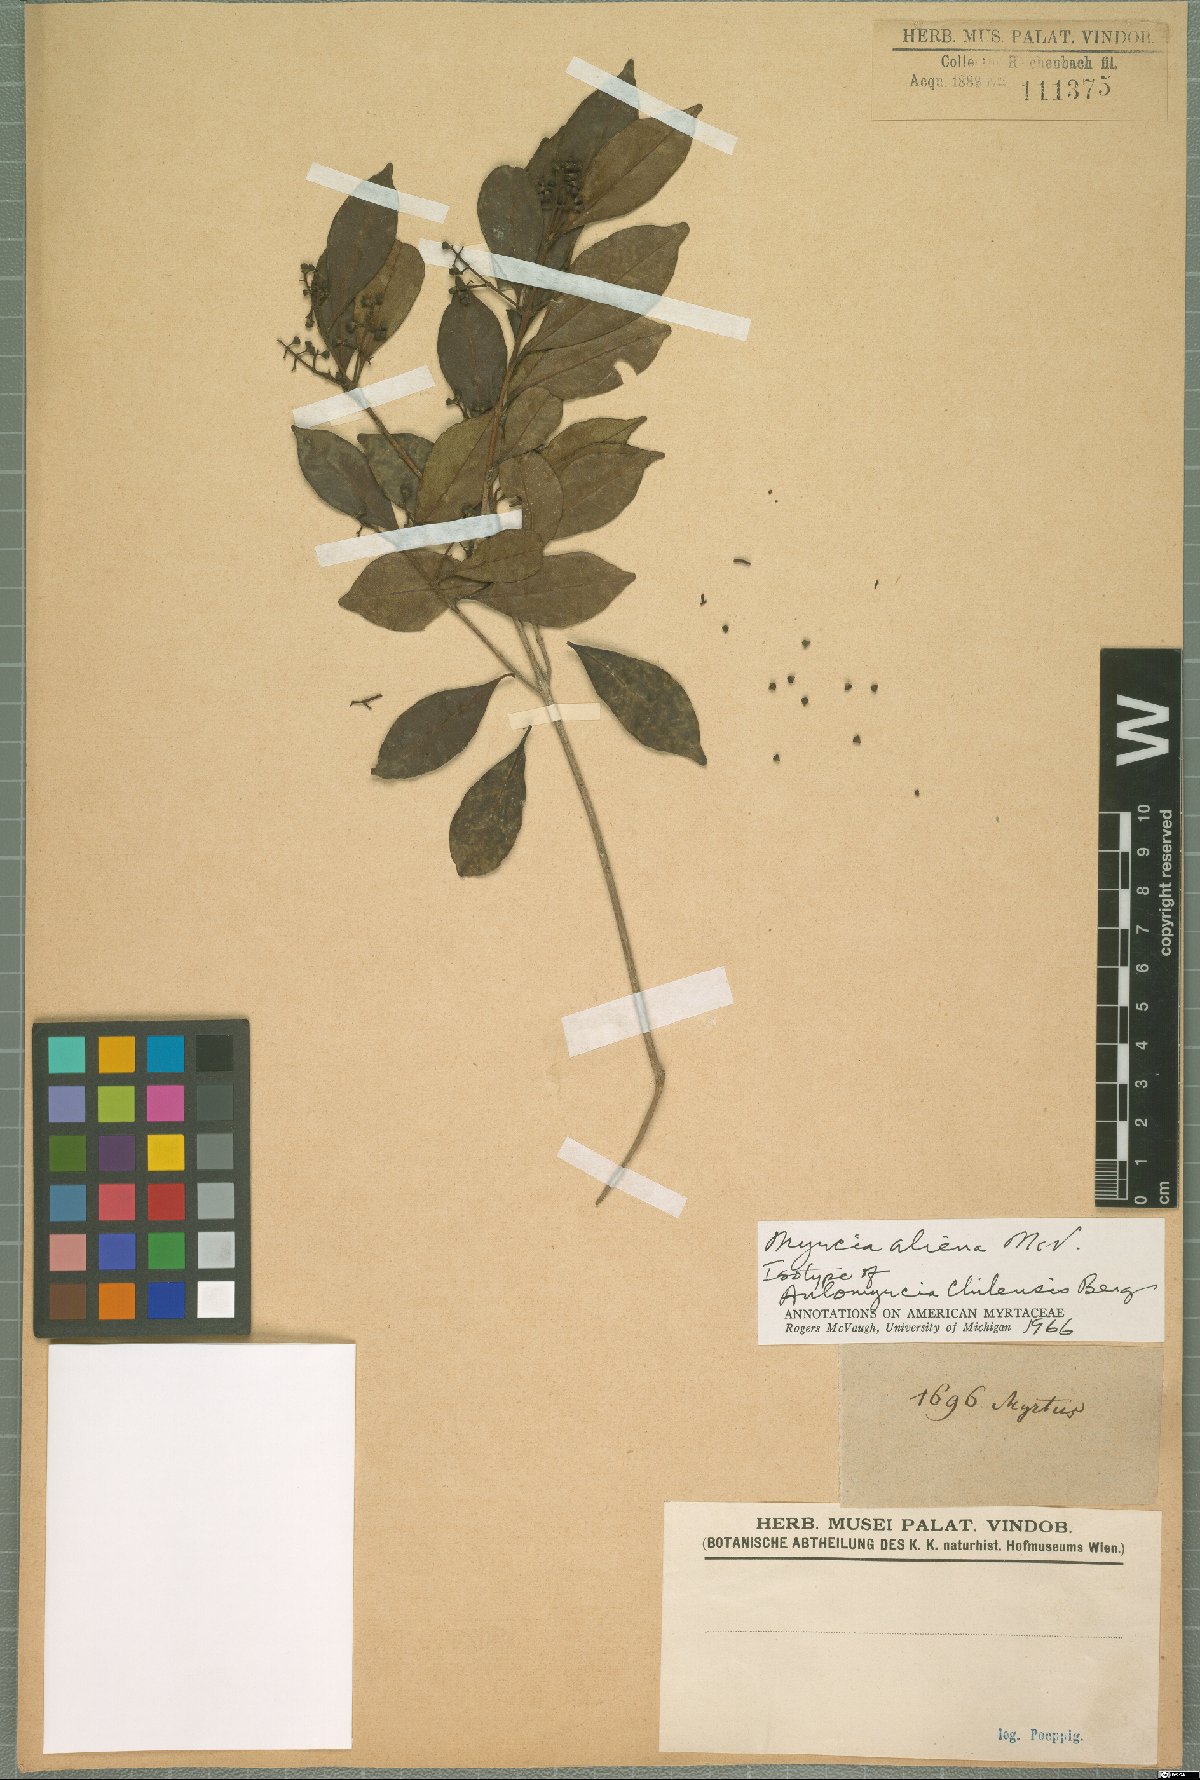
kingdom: Plantae
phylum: Tracheophyta
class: Magnoliopsida
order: Myrtales
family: Myrtaceae
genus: Myrcia
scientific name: Myrcia aliena
